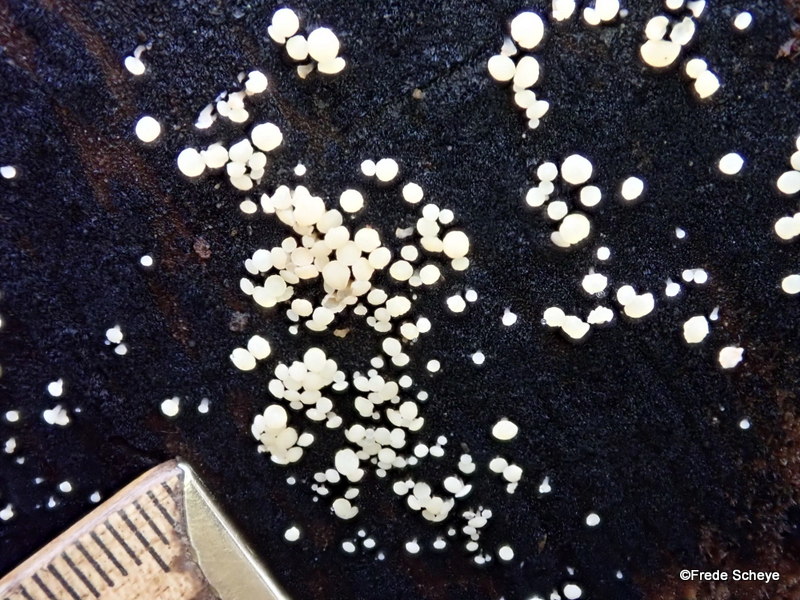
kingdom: Fungi
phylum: Ascomycota
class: Leotiomycetes
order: Helotiales
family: Helotiaceae
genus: Bispora
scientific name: Bispora pallescens
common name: måtte-snitskive
